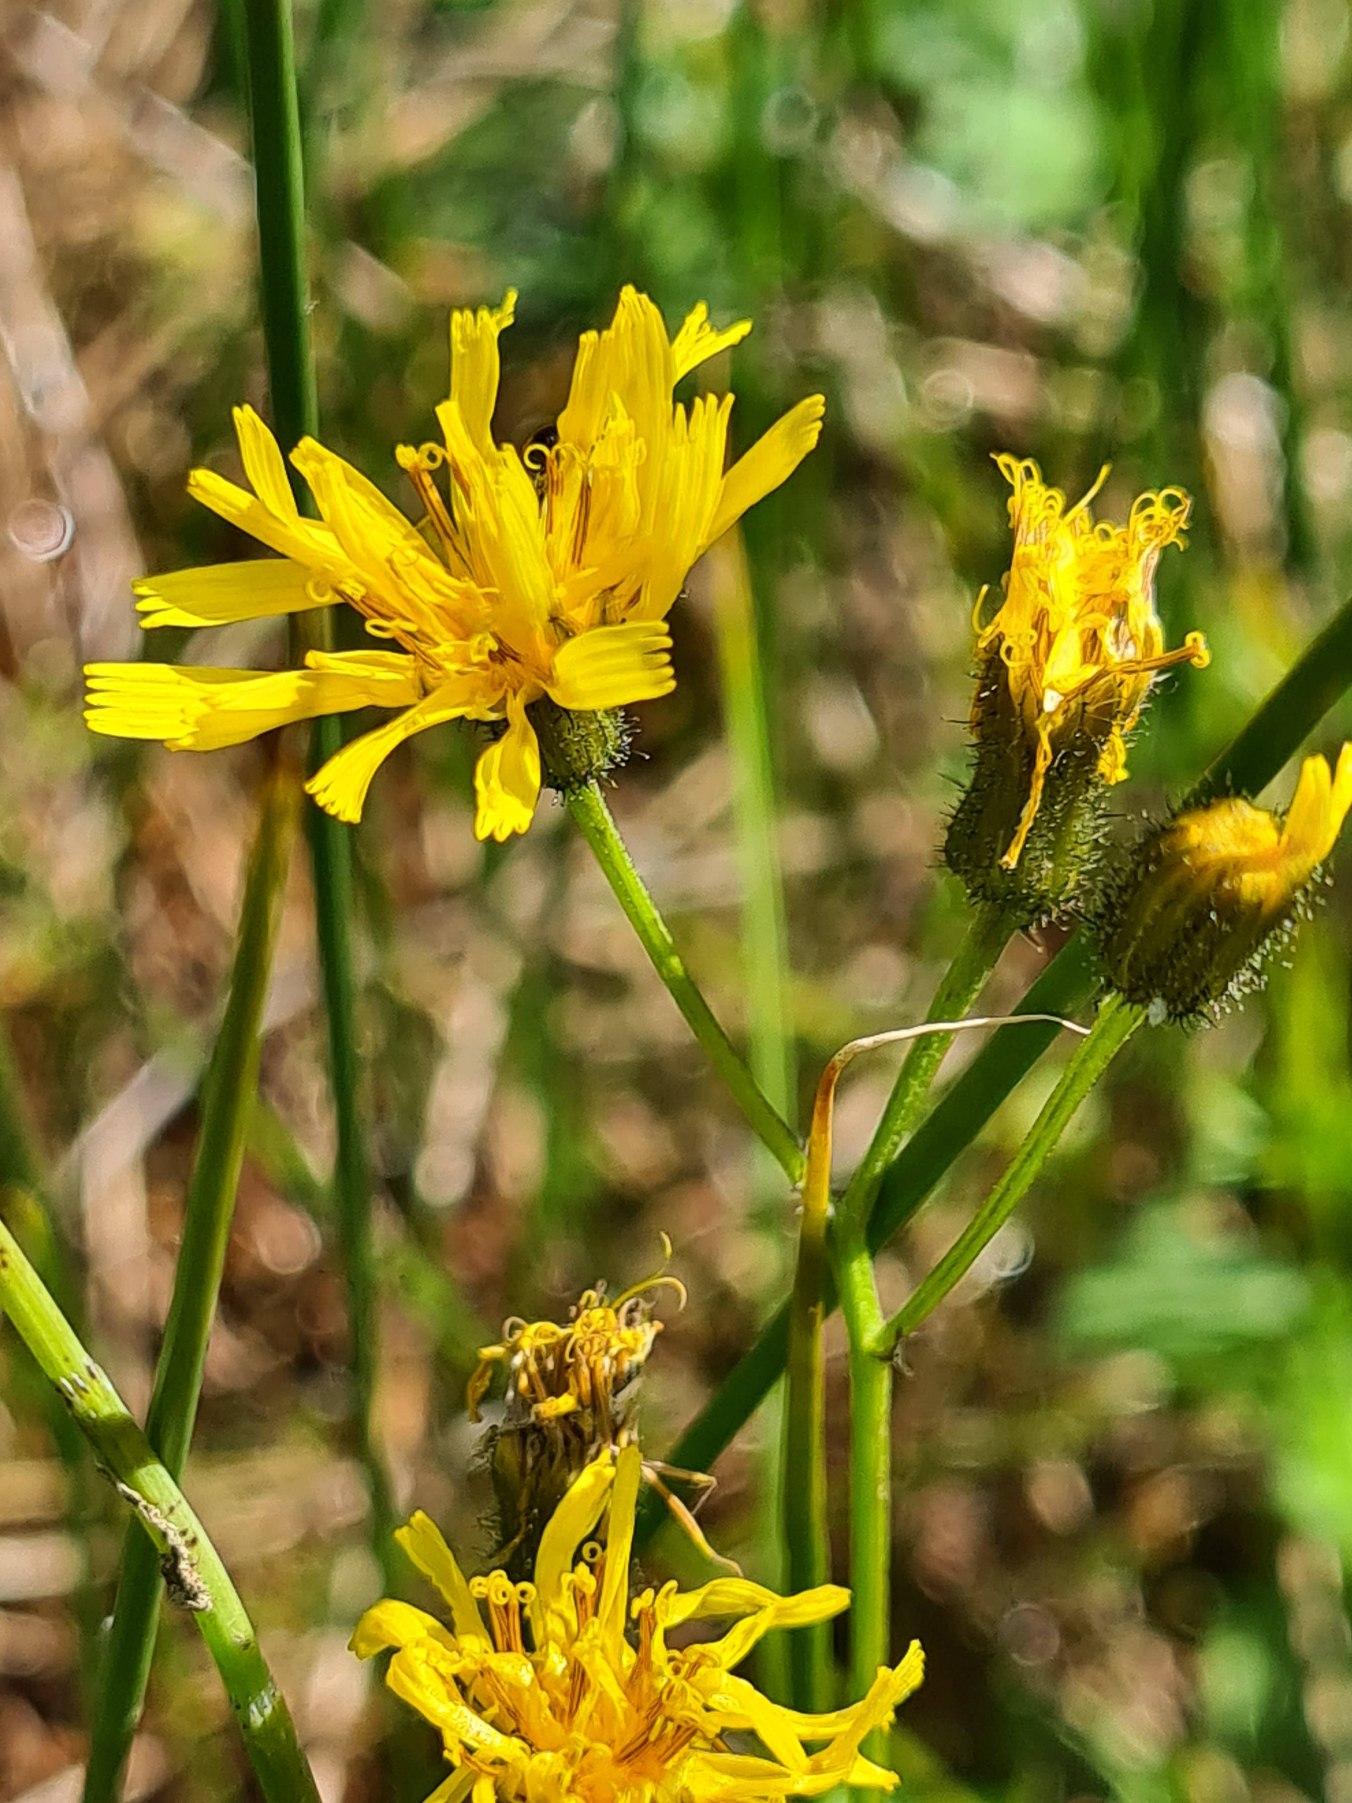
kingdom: Plantae
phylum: Tracheophyta
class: Magnoliopsida
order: Asterales
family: Asteraceae
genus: Crepis
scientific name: Crepis paludosa
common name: Kær-høgeskæg
